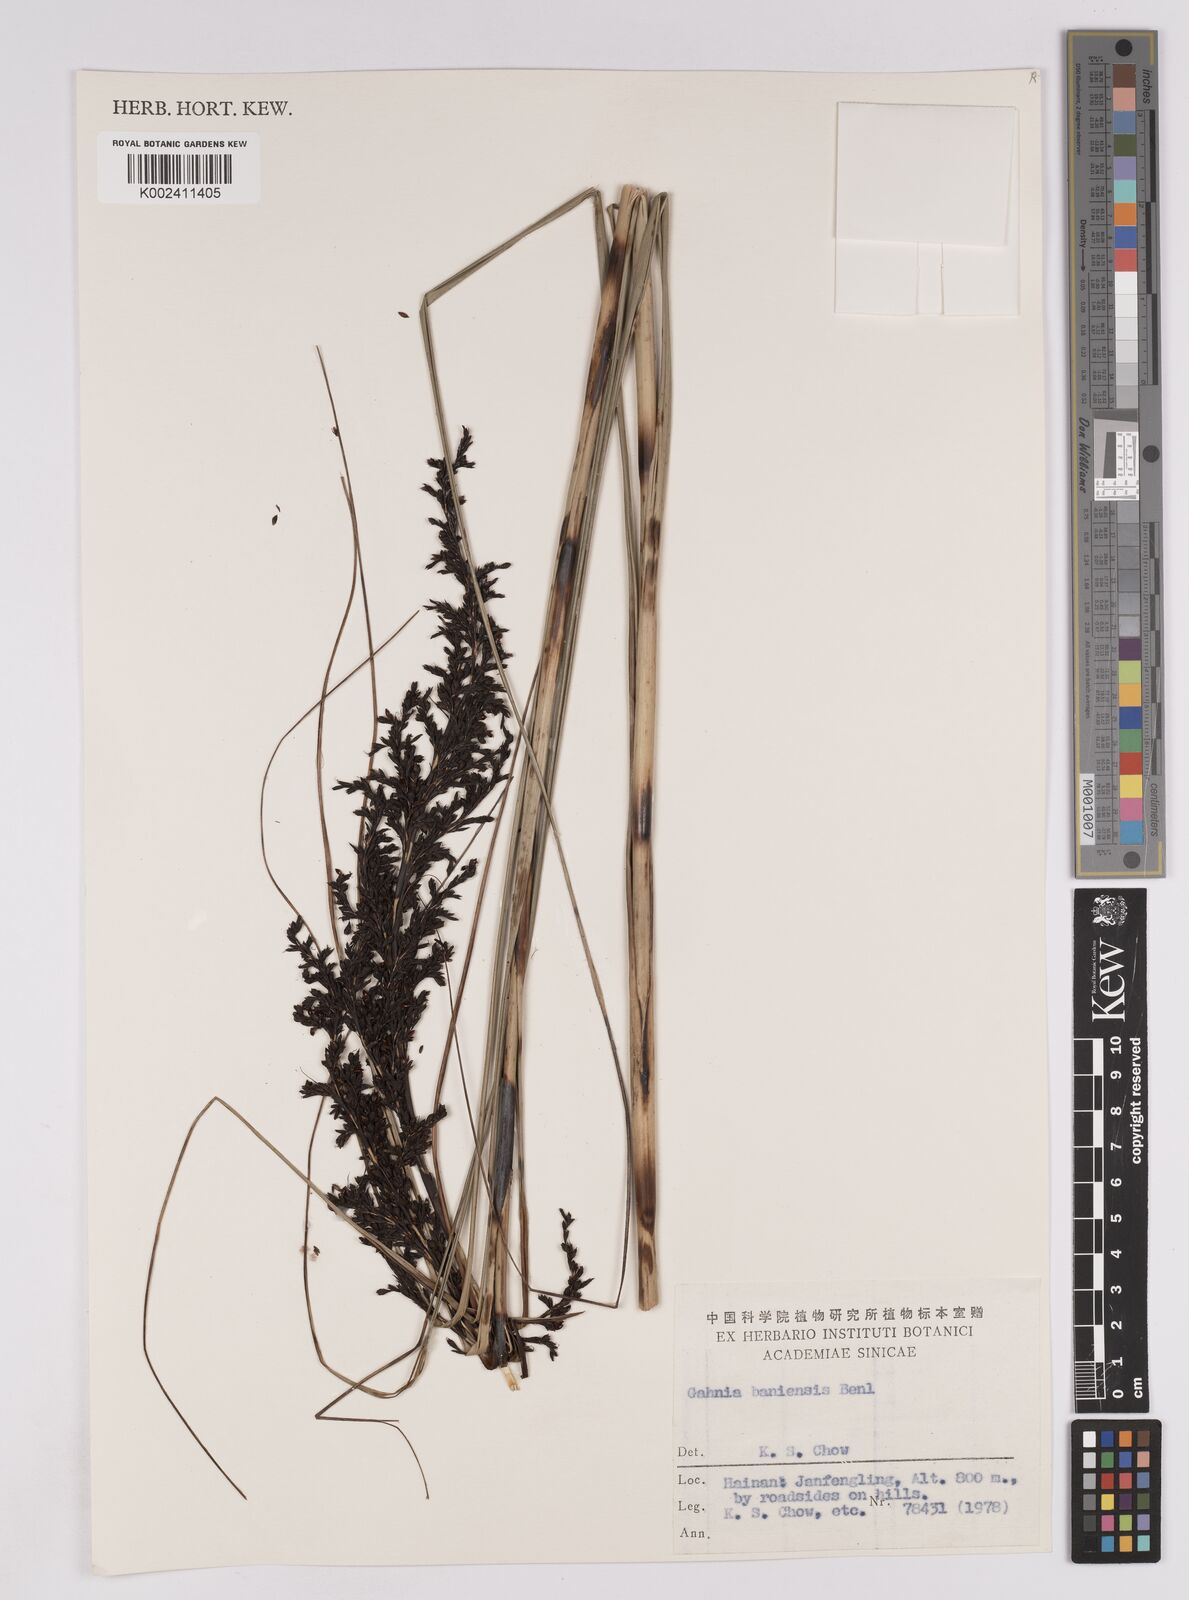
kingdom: Plantae
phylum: Tracheophyta
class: Liliopsida
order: Poales
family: Cyperaceae
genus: Gahnia
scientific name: Gahnia baniensis
